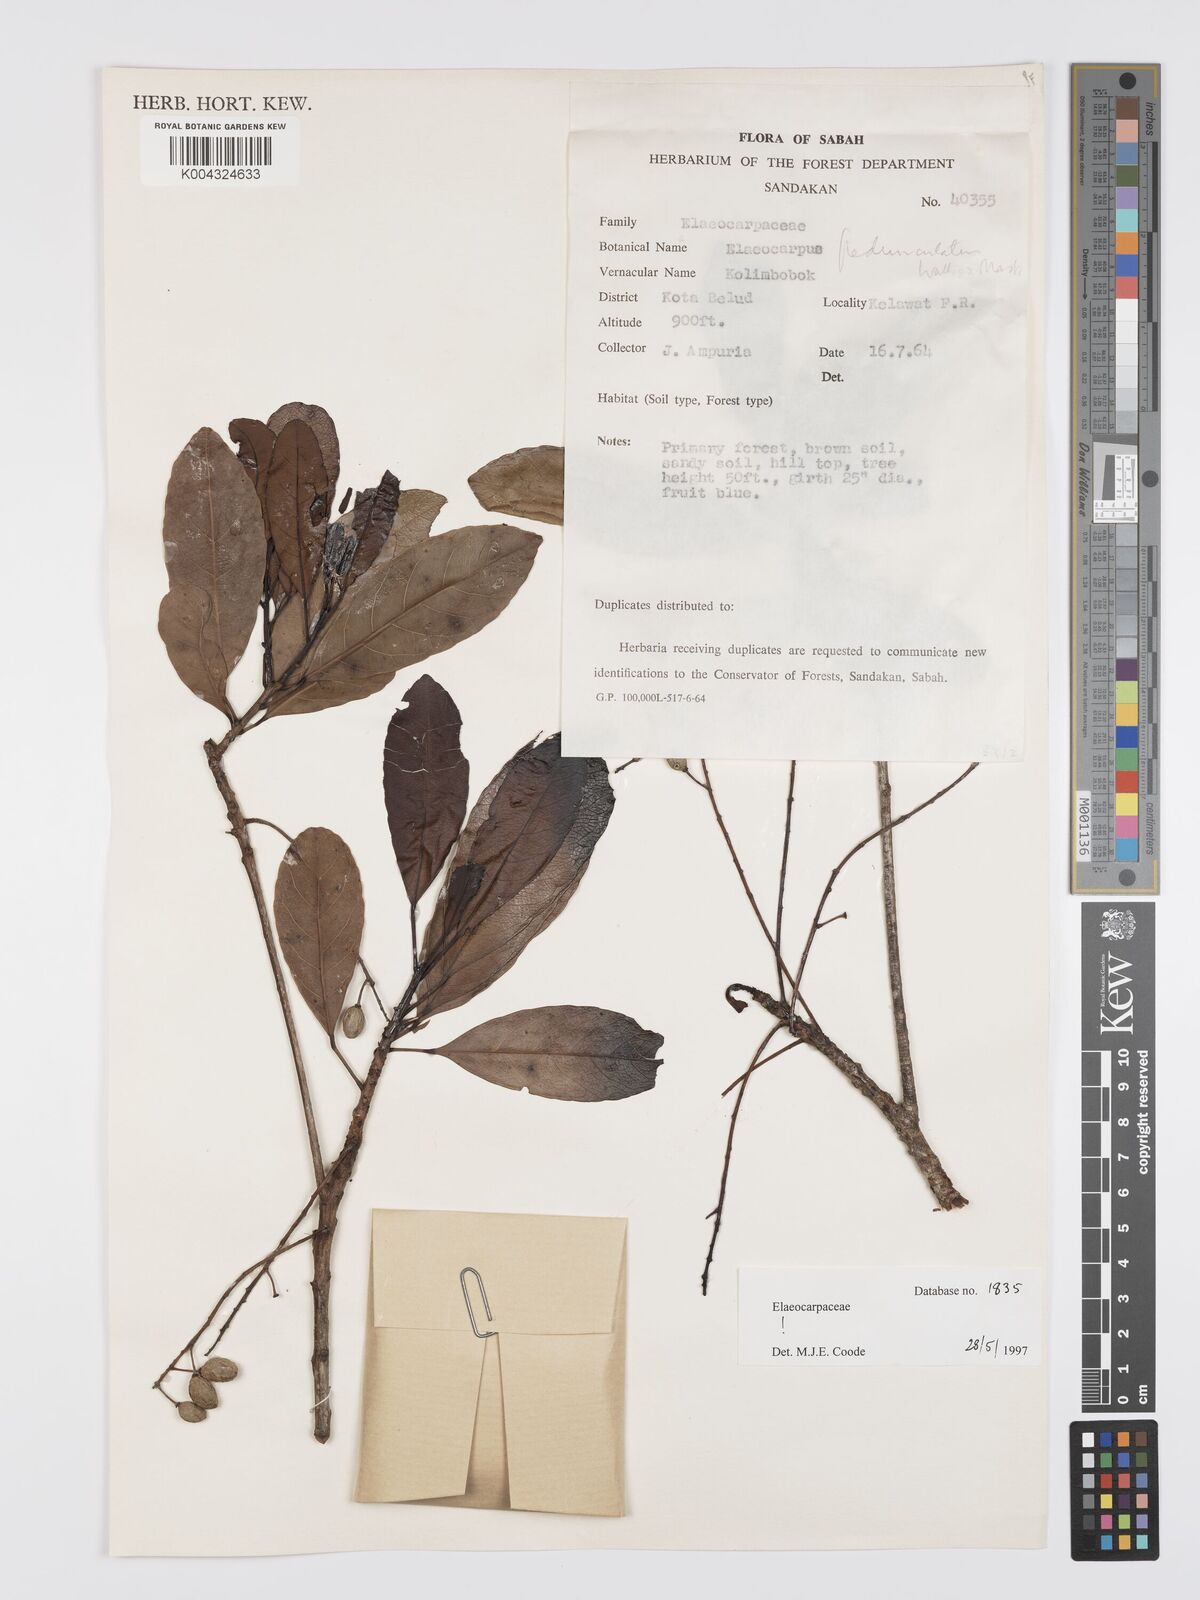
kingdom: Plantae
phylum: Tracheophyta
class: Magnoliopsida
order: Oxalidales
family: Elaeocarpaceae
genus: Elaeocarpus
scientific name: Elaeocarpus pedunculatus
